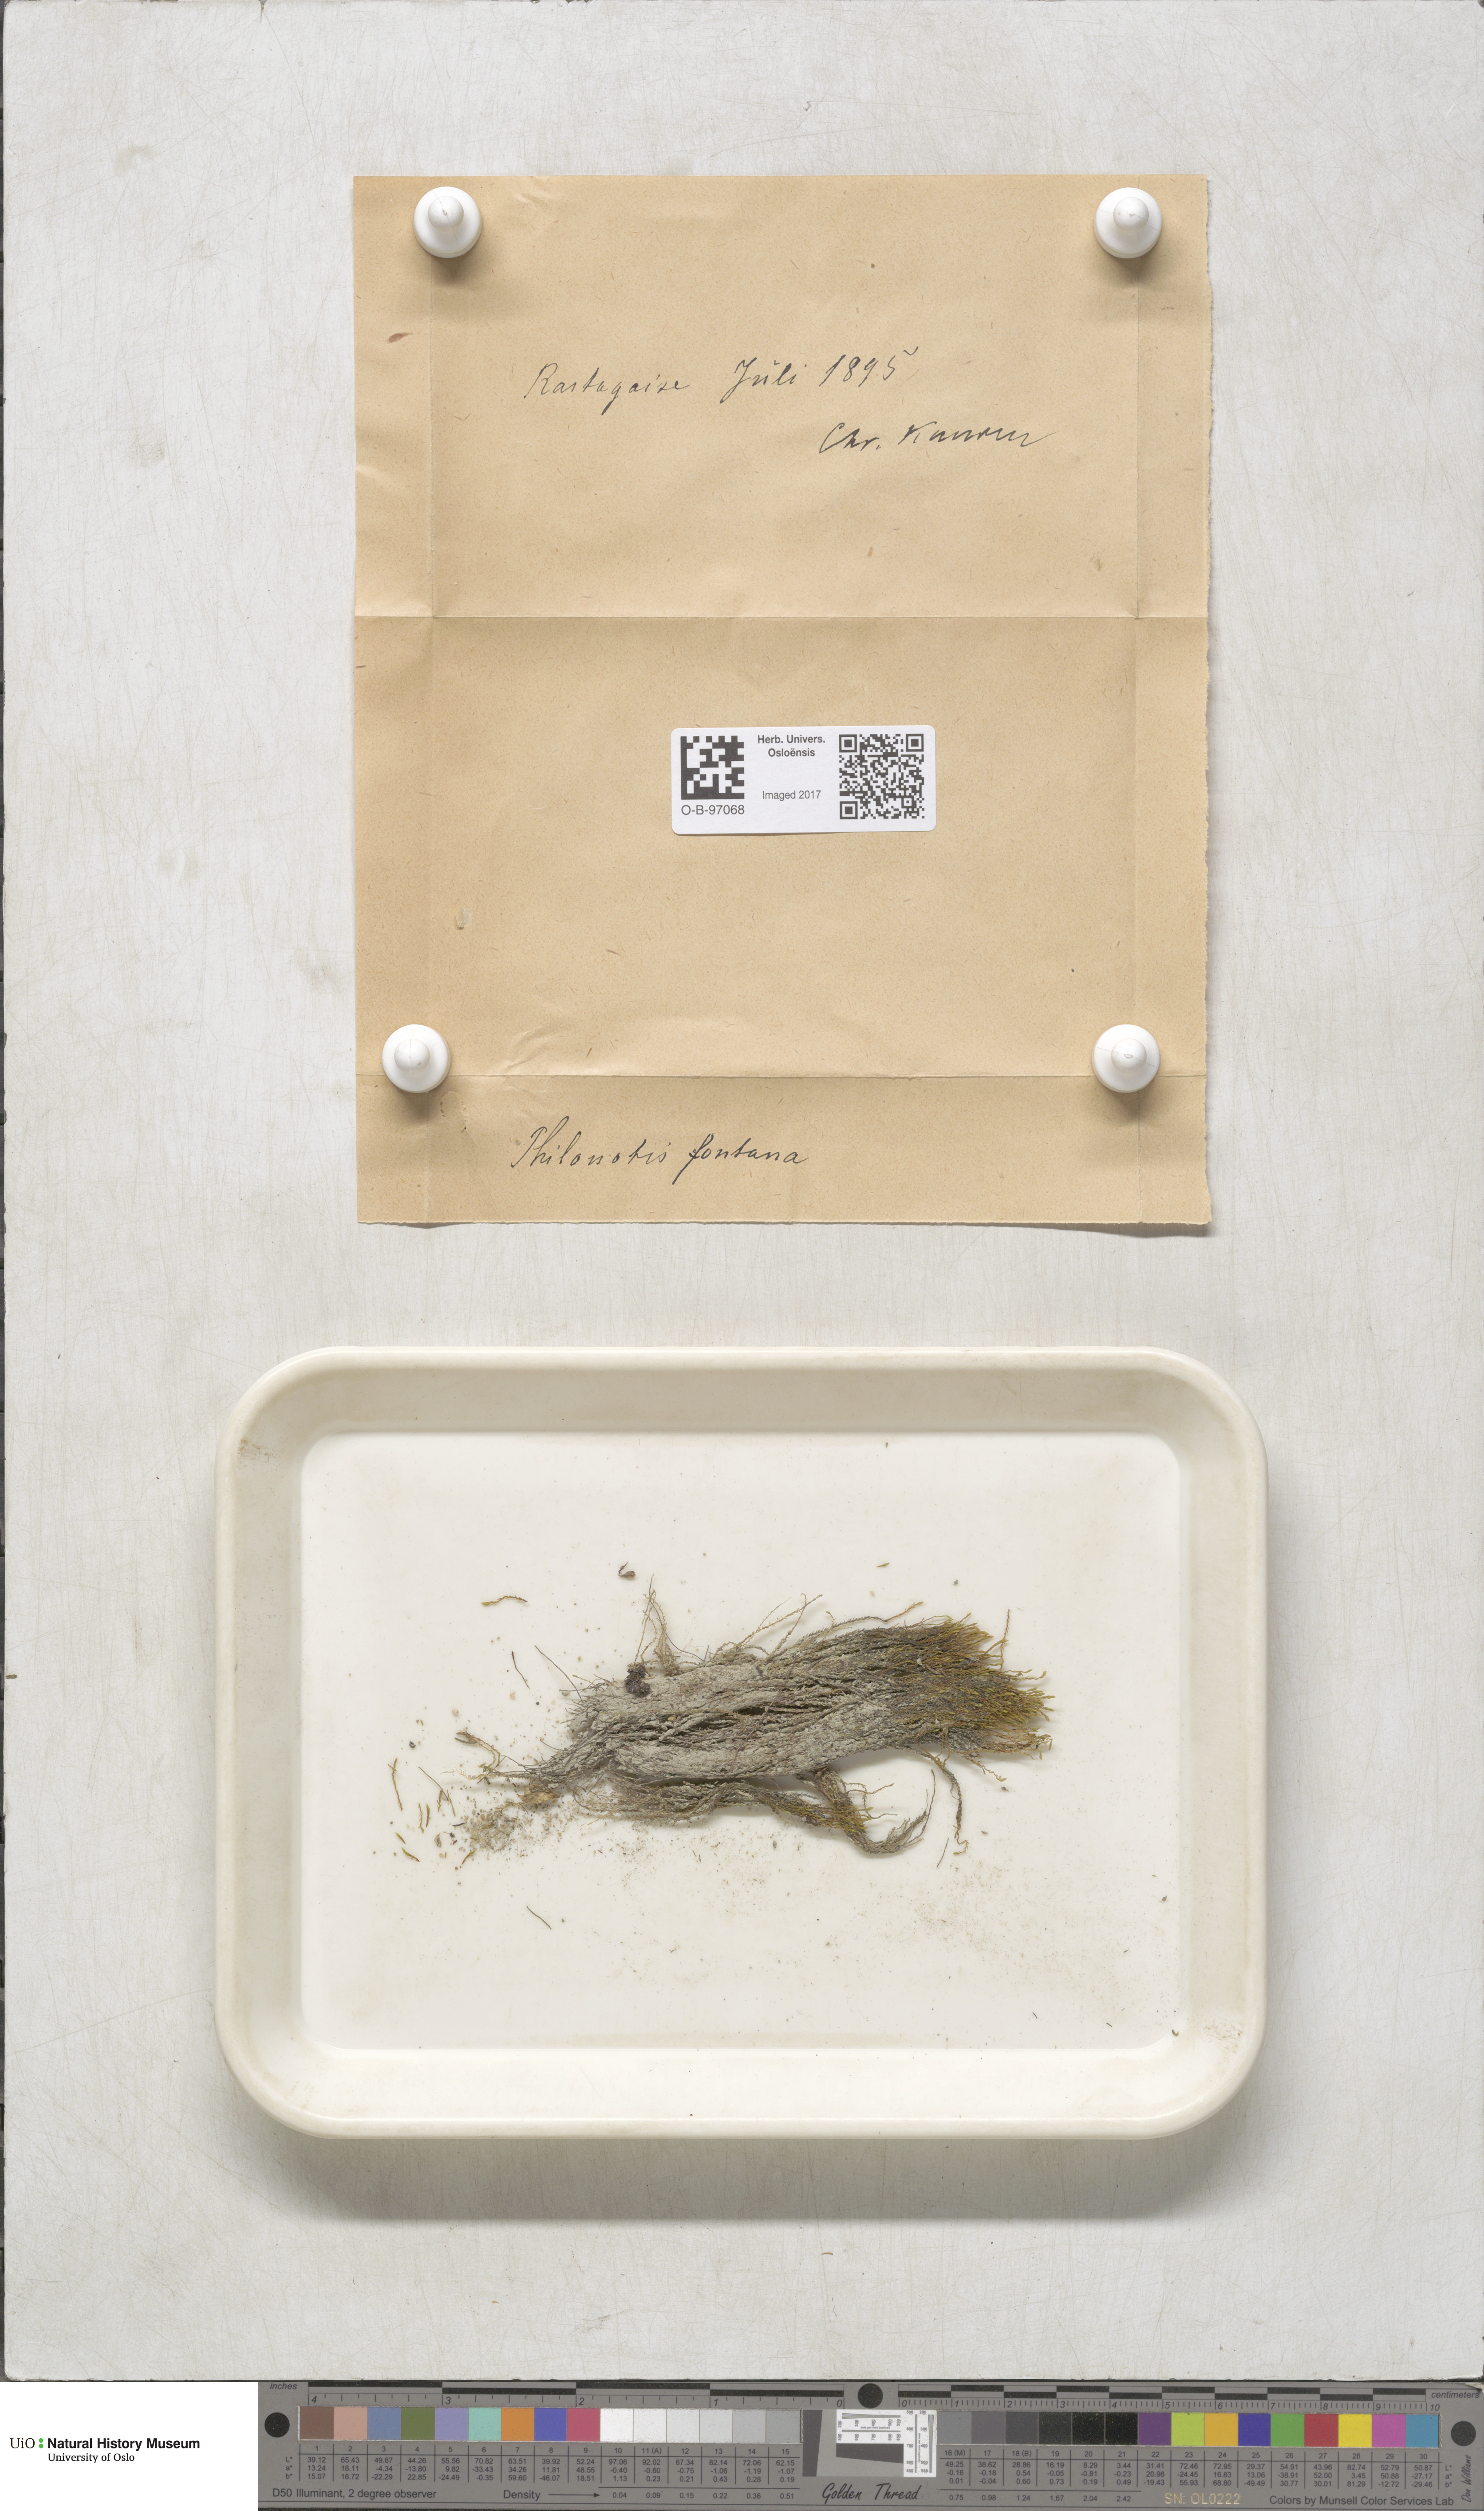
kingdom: Plantae
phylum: Bryophyta
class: Bryopsida
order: Bartramiales
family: Bartramiaceae
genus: Philonotis
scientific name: Philonotis fontana
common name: Fountain apple-moss
